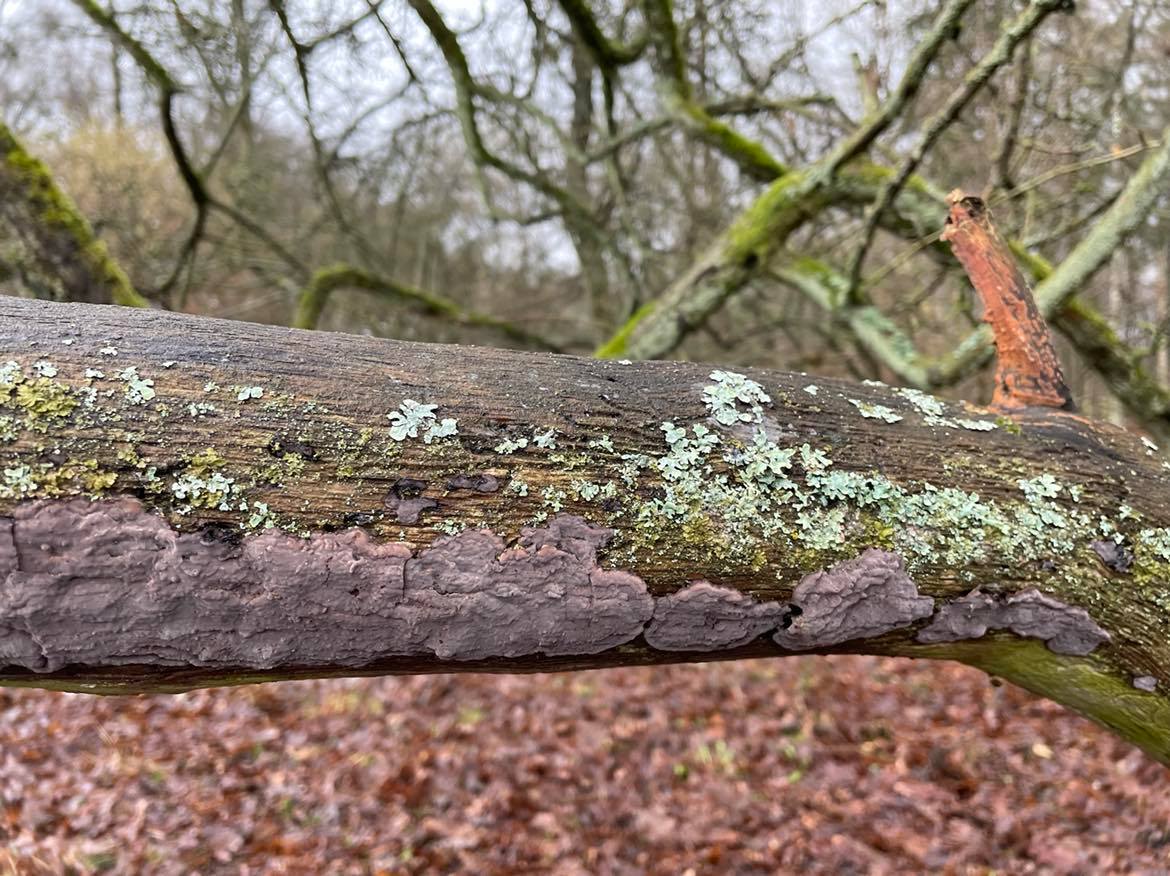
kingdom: Fungi
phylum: Basidiomycota
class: Agaricomycetes
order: Russulales
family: Peniophoraceae
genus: Peniophora
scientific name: Peniophora quercina
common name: ege-voksskind
